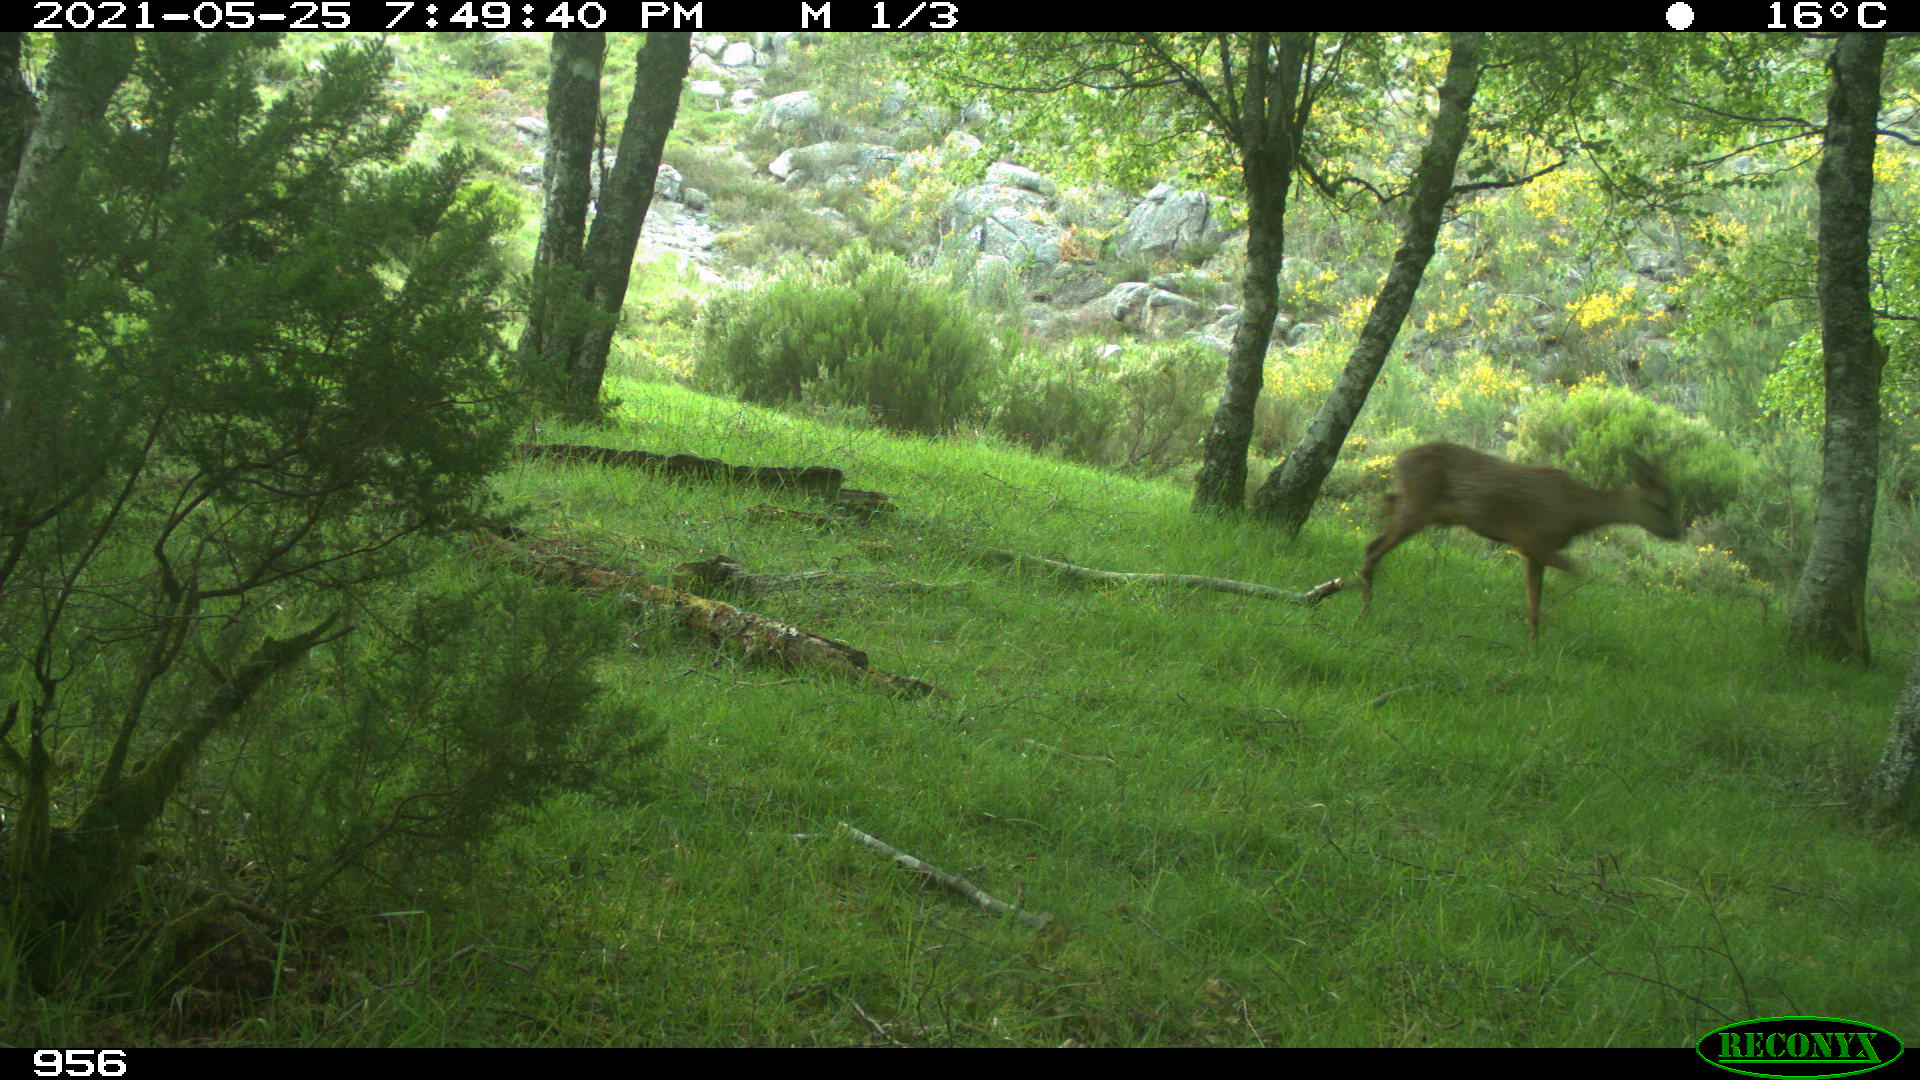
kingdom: Animalia
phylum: Chordata
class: Mammalia
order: Artiodactyla
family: Cervidae
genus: Capreolus
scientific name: Capreolus capreolus
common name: Western roe deer
